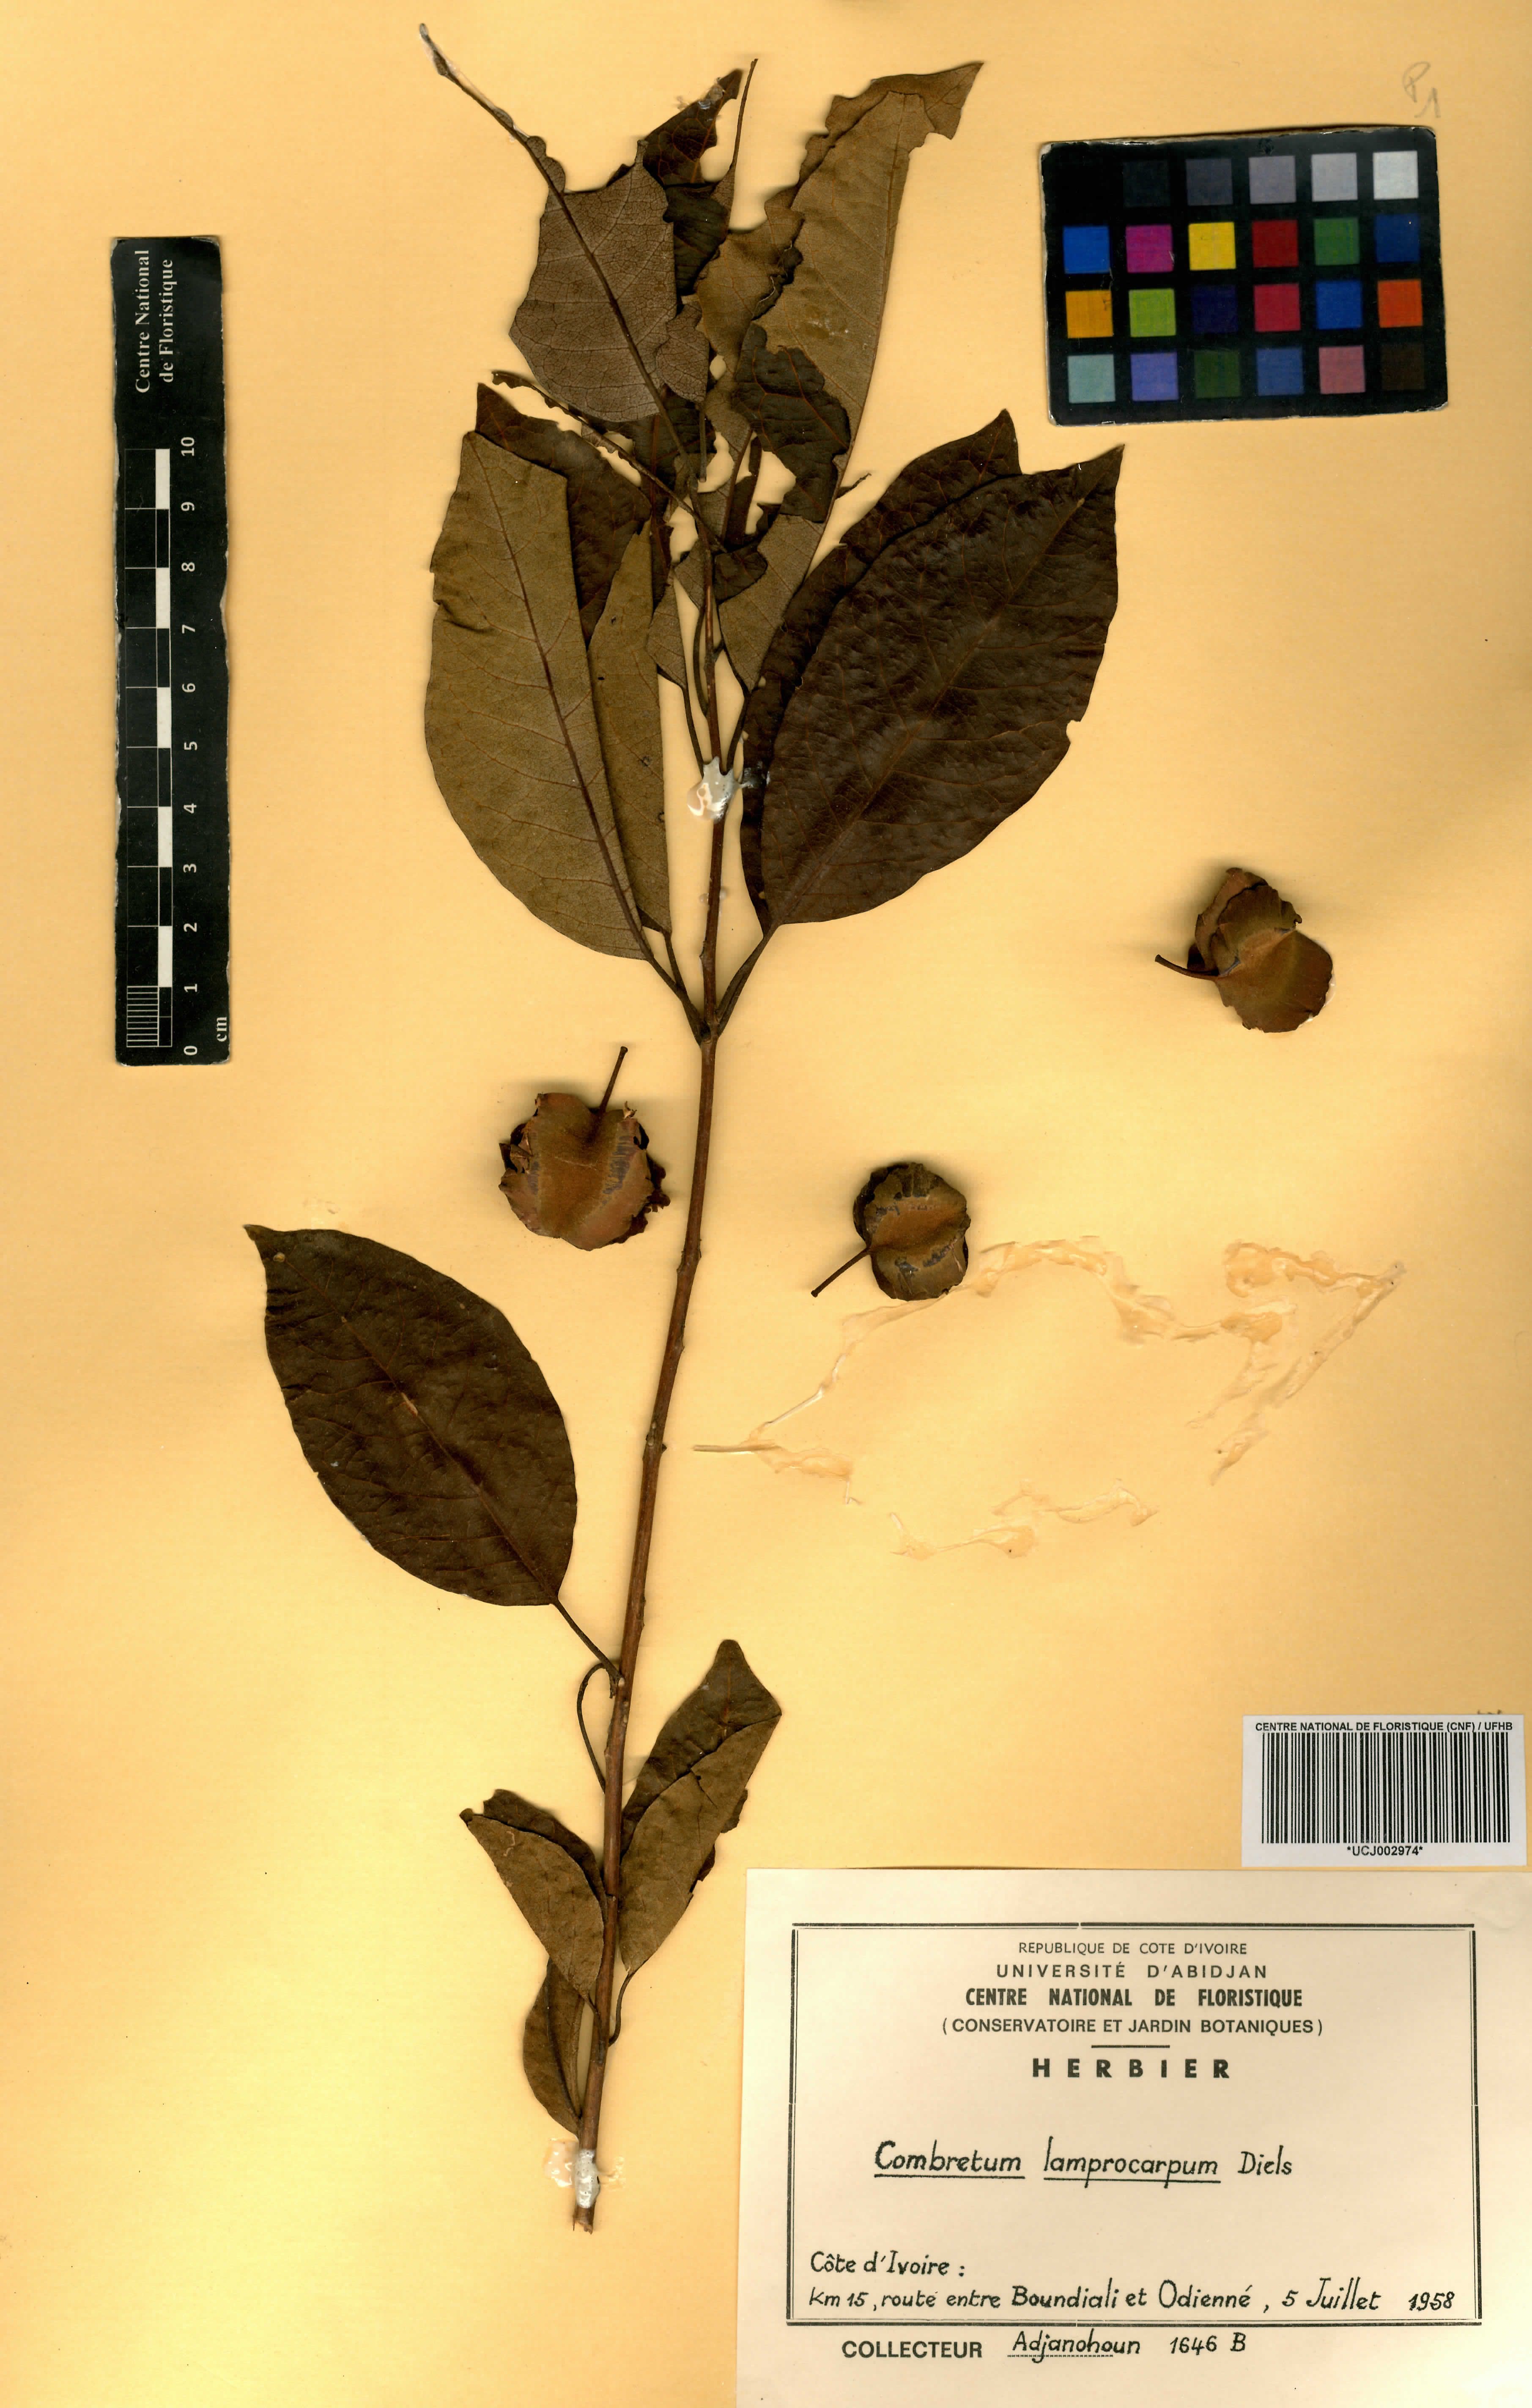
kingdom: Plantae
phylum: Tracheophyta
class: Magnoliopsida
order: Myrtales
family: Combretaceae
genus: Combretum
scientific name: Combretum collinum
